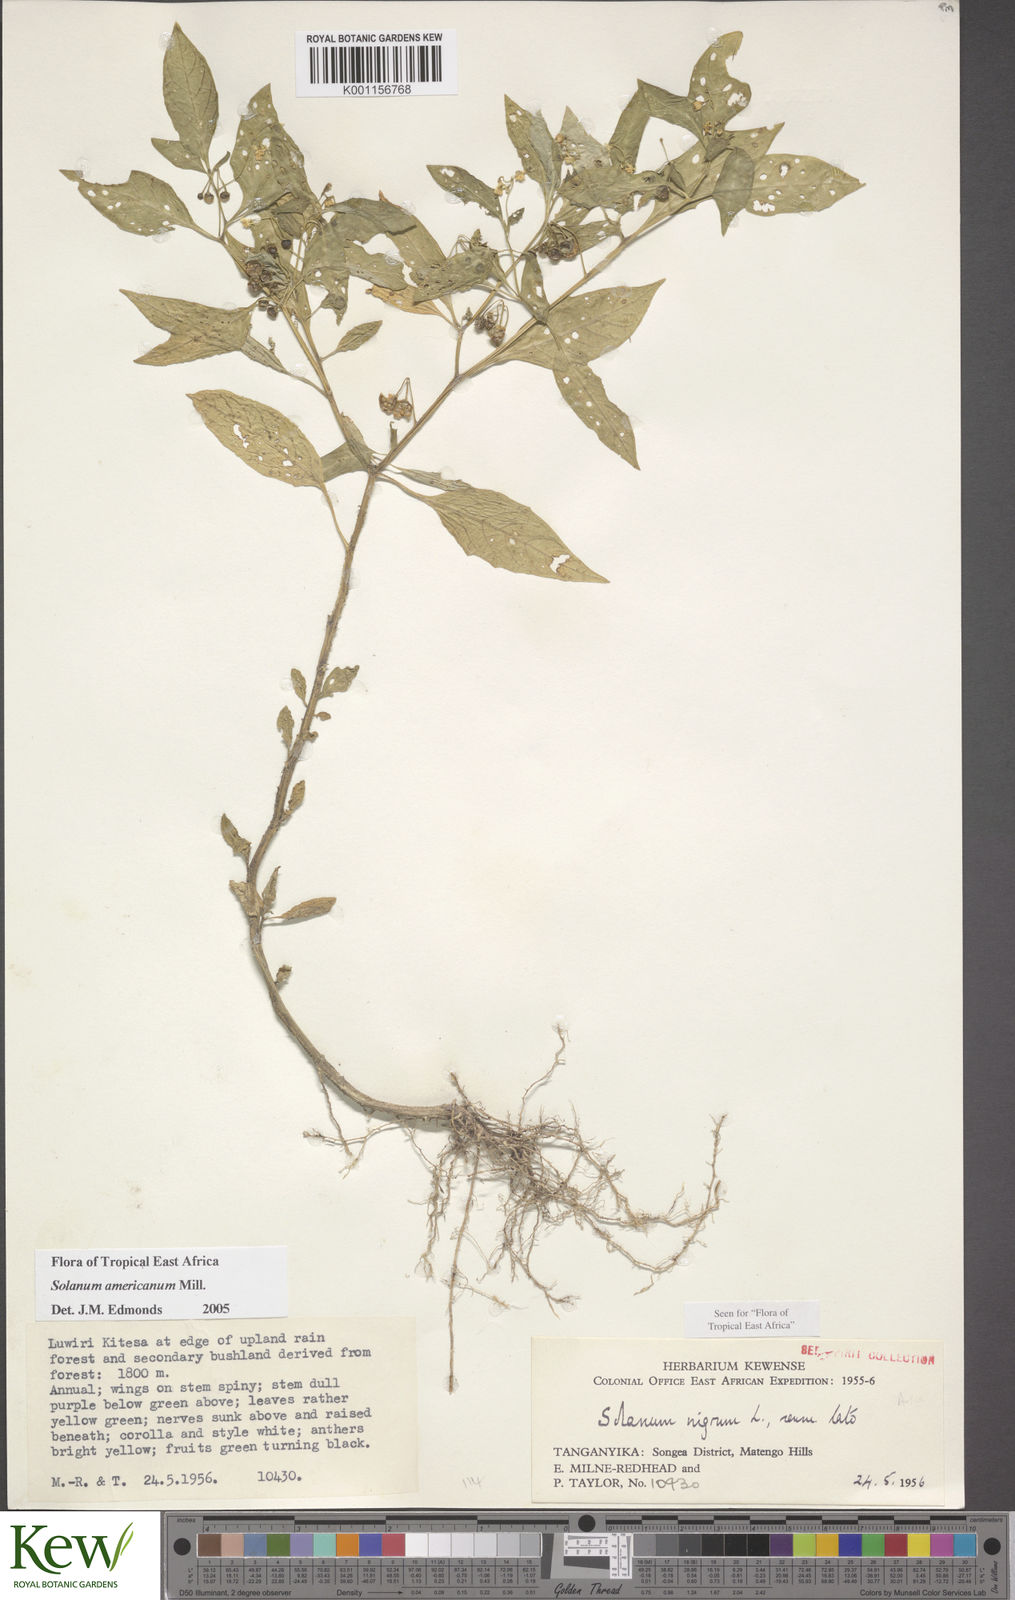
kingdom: Plantae
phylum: Tracheophyta
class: Magnoliopsida
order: Solanales
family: Solanaceae
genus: Solanum
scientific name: Solanum americanum
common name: American black nightshade
